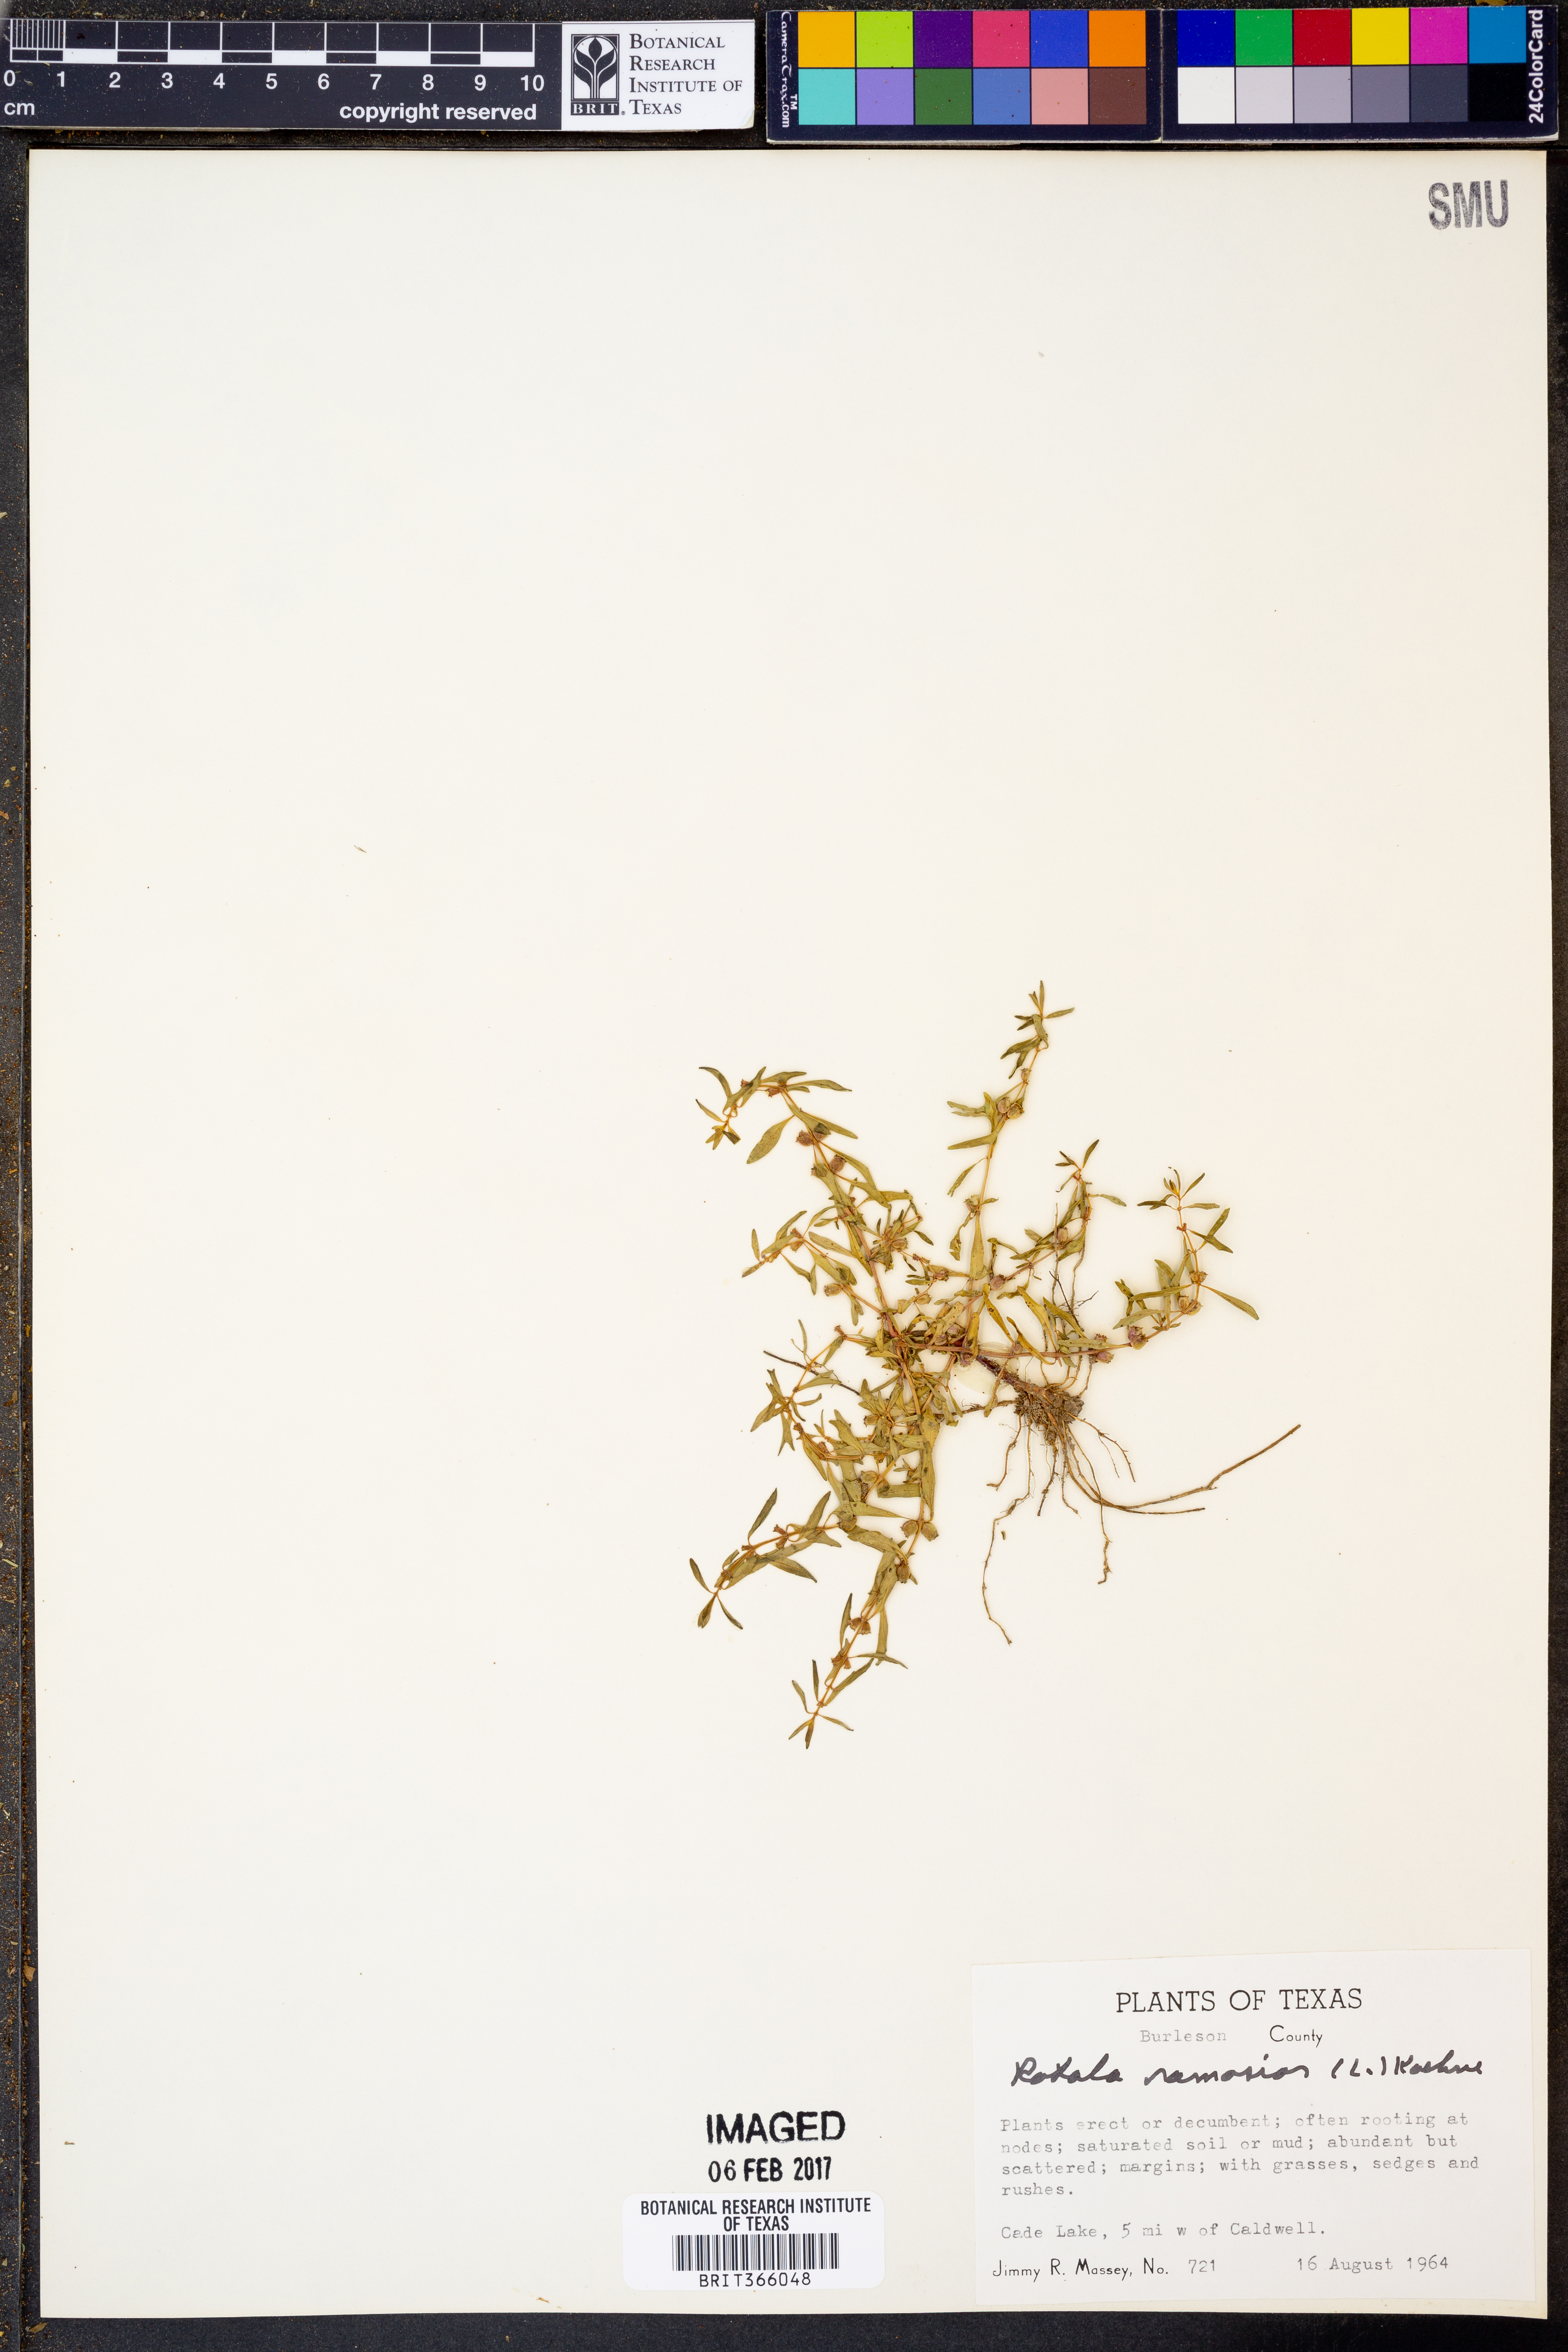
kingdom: Plantae
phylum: Tracheophyta
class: Magnoliopsida
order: Myrtales
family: Lythraceae
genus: Rotala
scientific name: Rotala ramosior
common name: Lowland rotala
